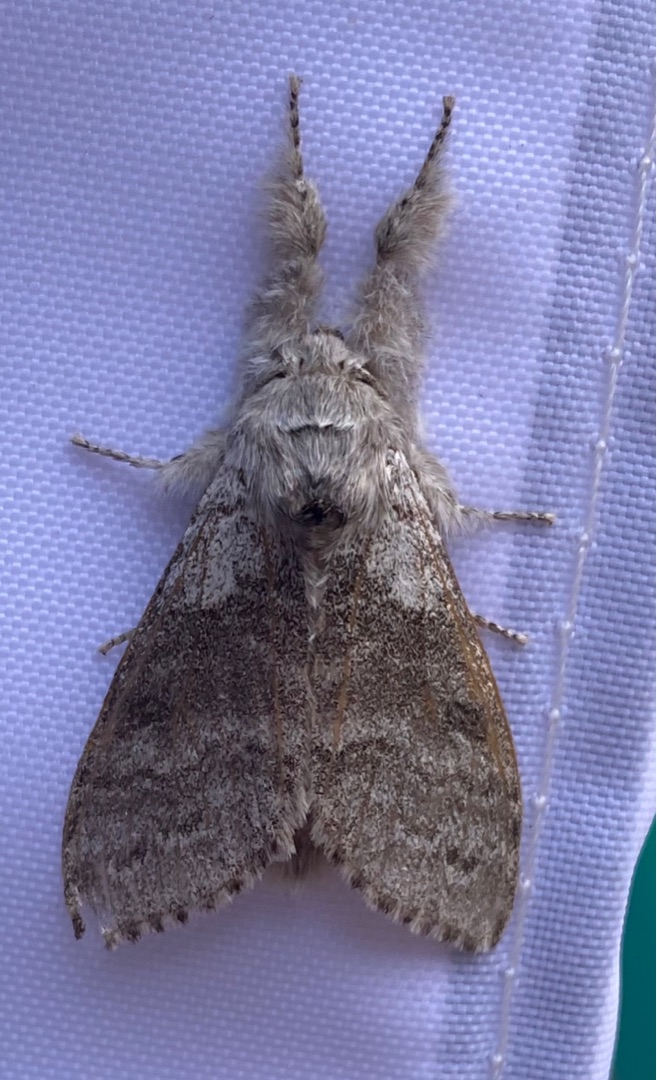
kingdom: Animalia
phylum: Arthropoda
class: Insecta
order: Lepidoptera
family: Erebidae
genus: Calliteara
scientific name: Calliteara pudibunda
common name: Bøgenonne
